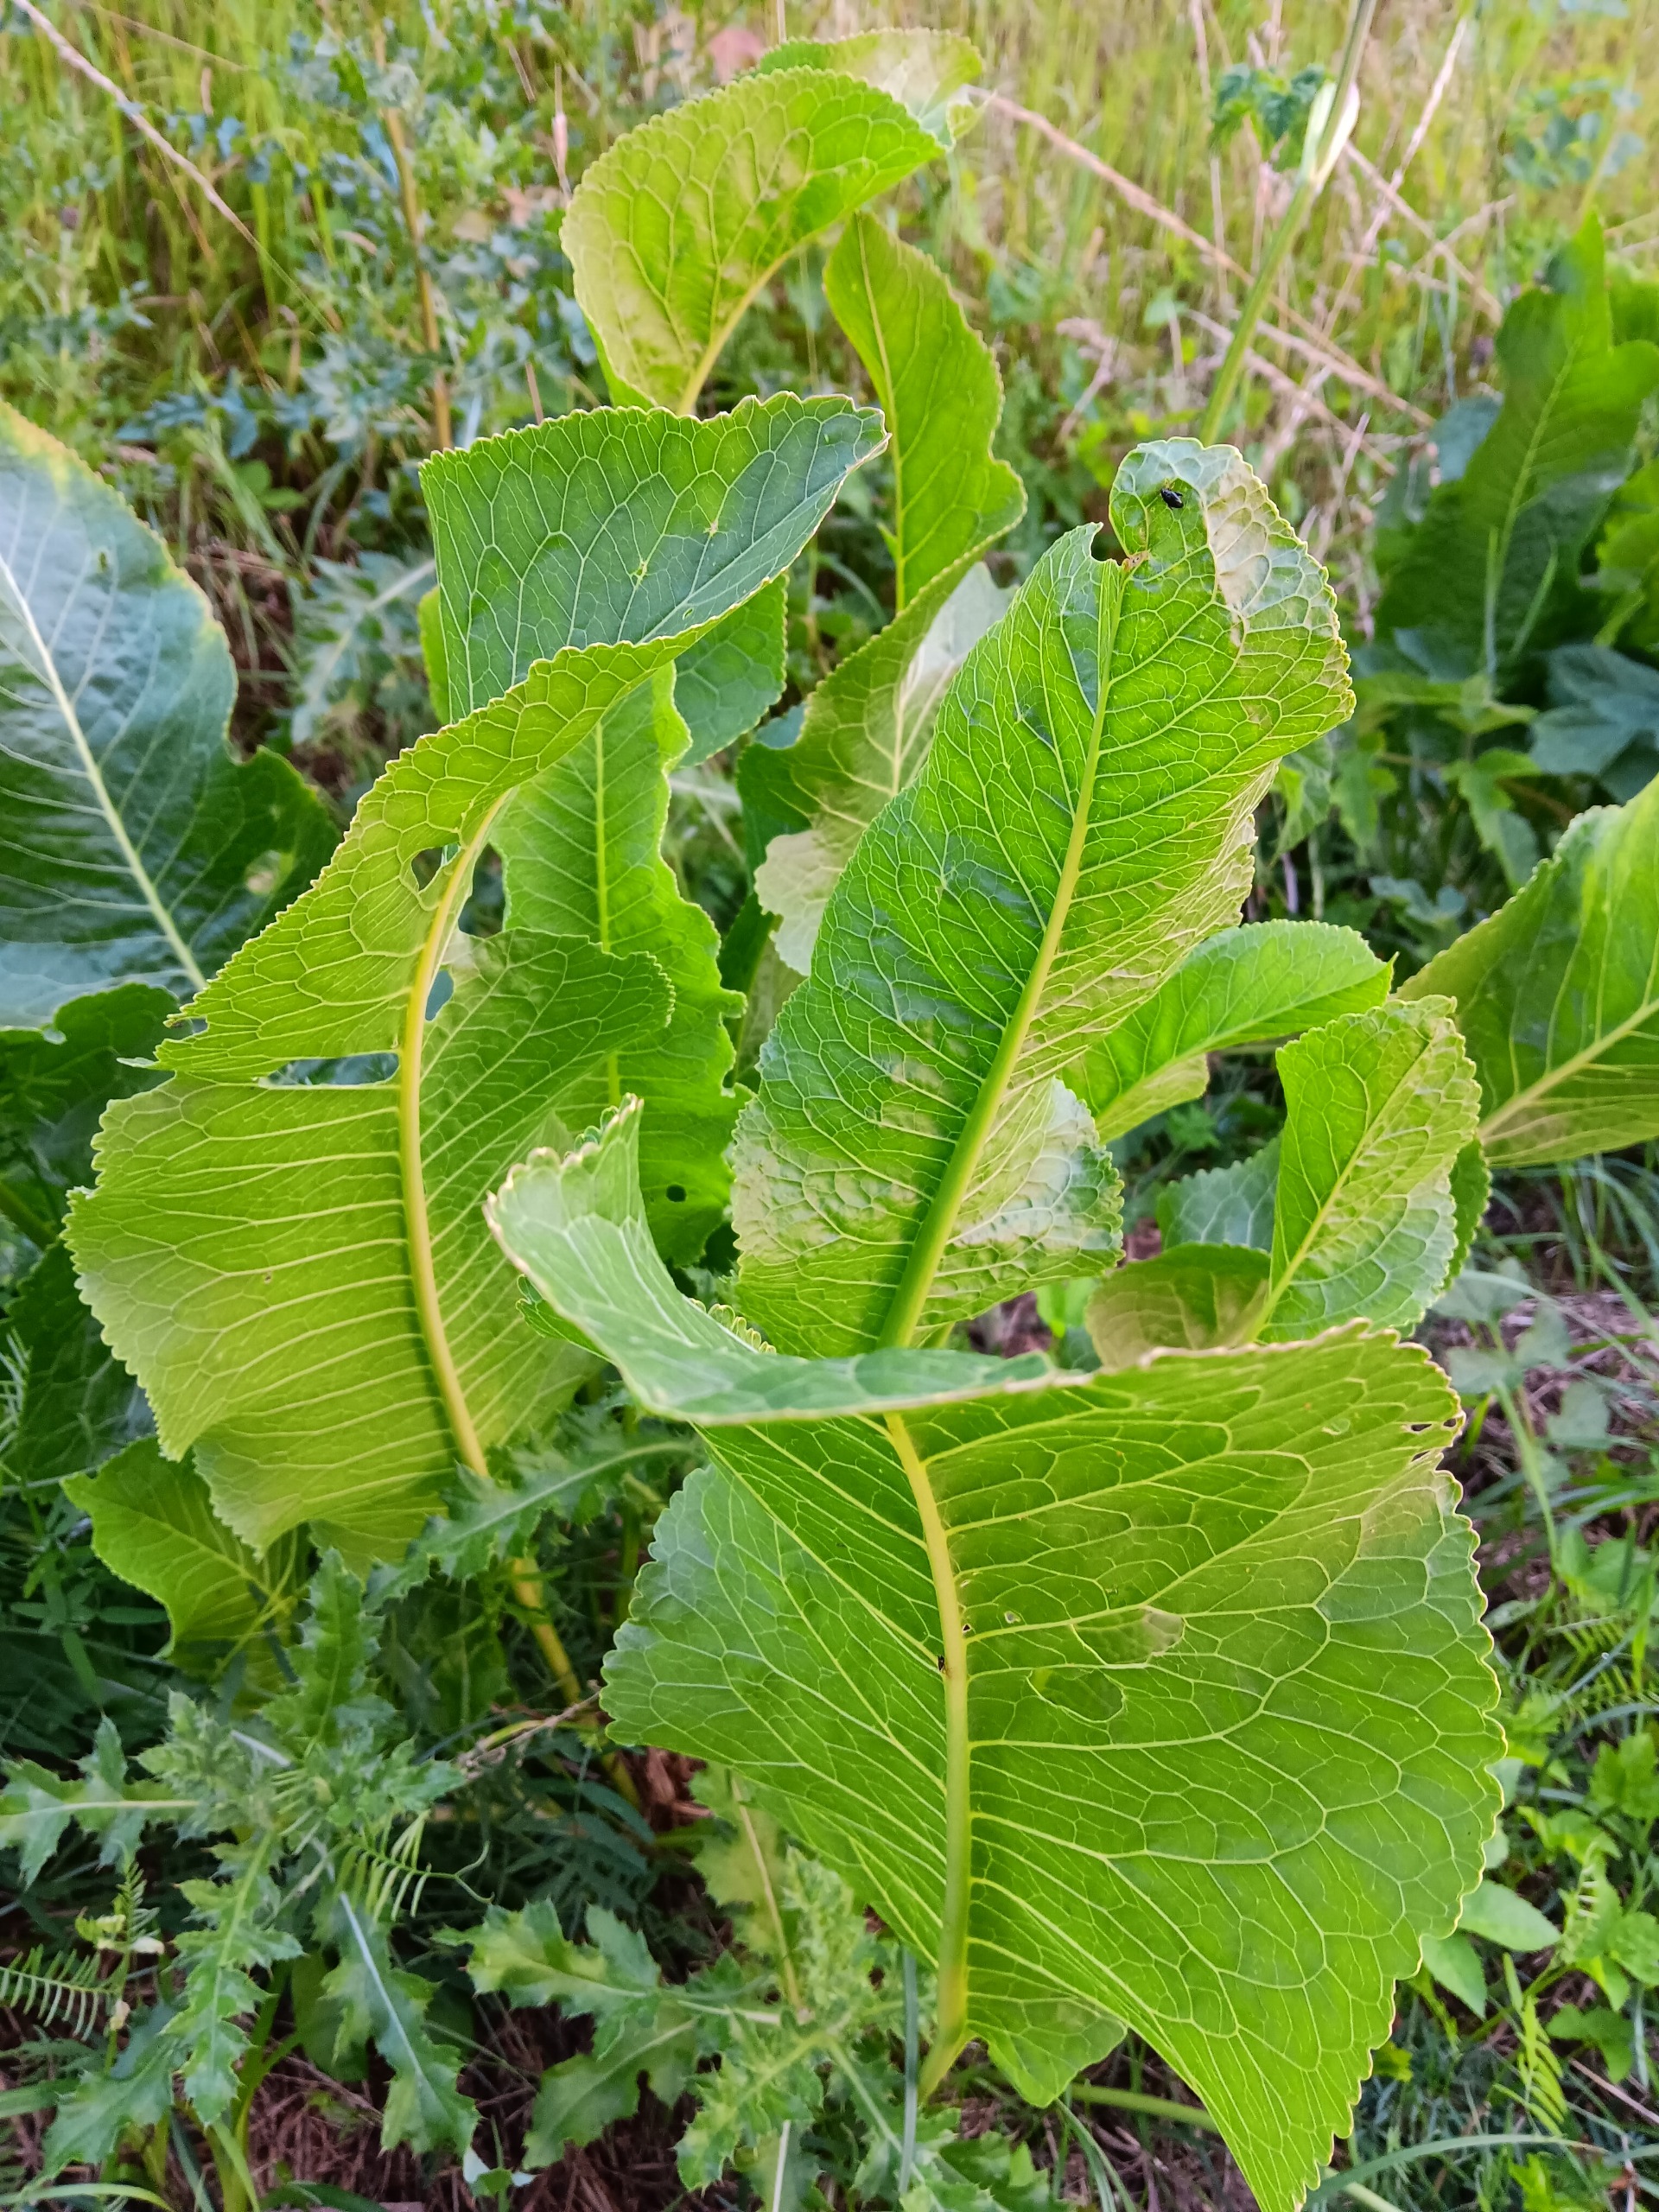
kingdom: Plantae
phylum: Tracheophyta
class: Magnoliopsida
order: Brassicales
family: Brassicaceae
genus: Armoracia
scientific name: Armoracia rusticana
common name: Peberrod
